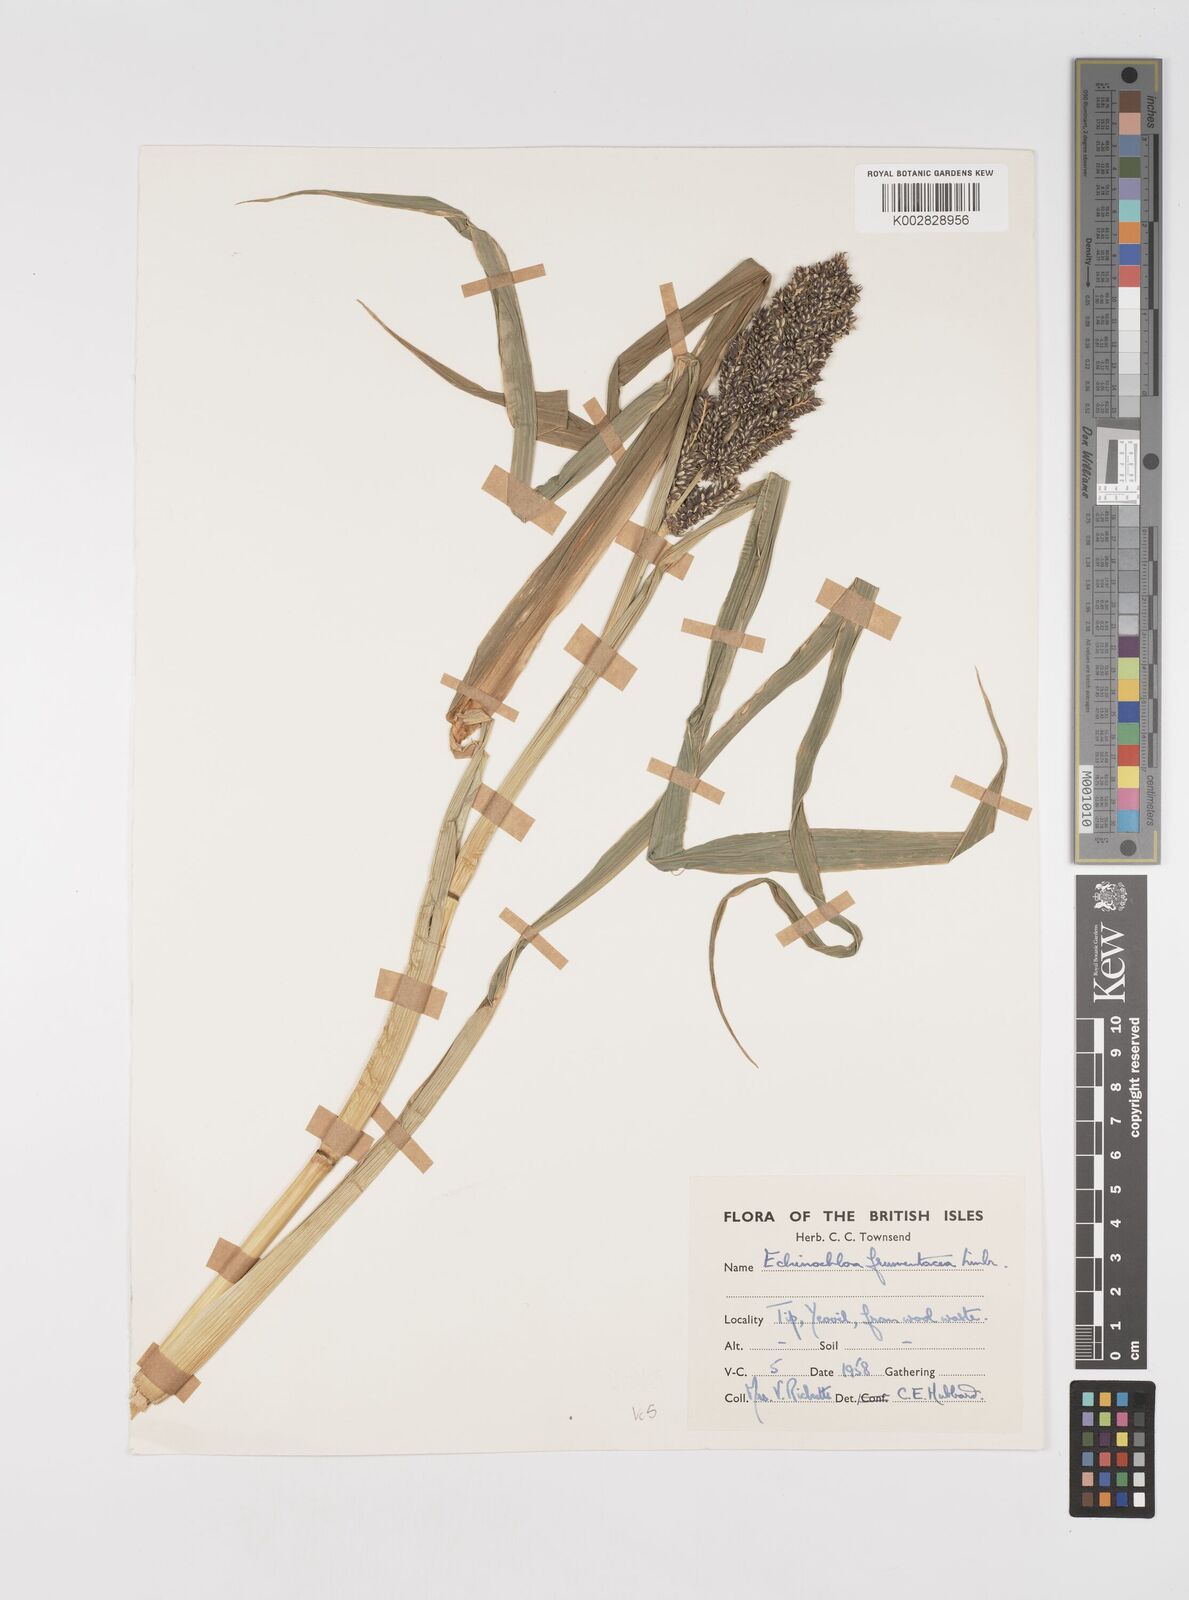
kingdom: Plantae
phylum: Tracheophyta
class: Liliopsida
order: Poales
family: Poaceae
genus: Echinochloa
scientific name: Echinochloa crus-galli
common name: Cockspur
